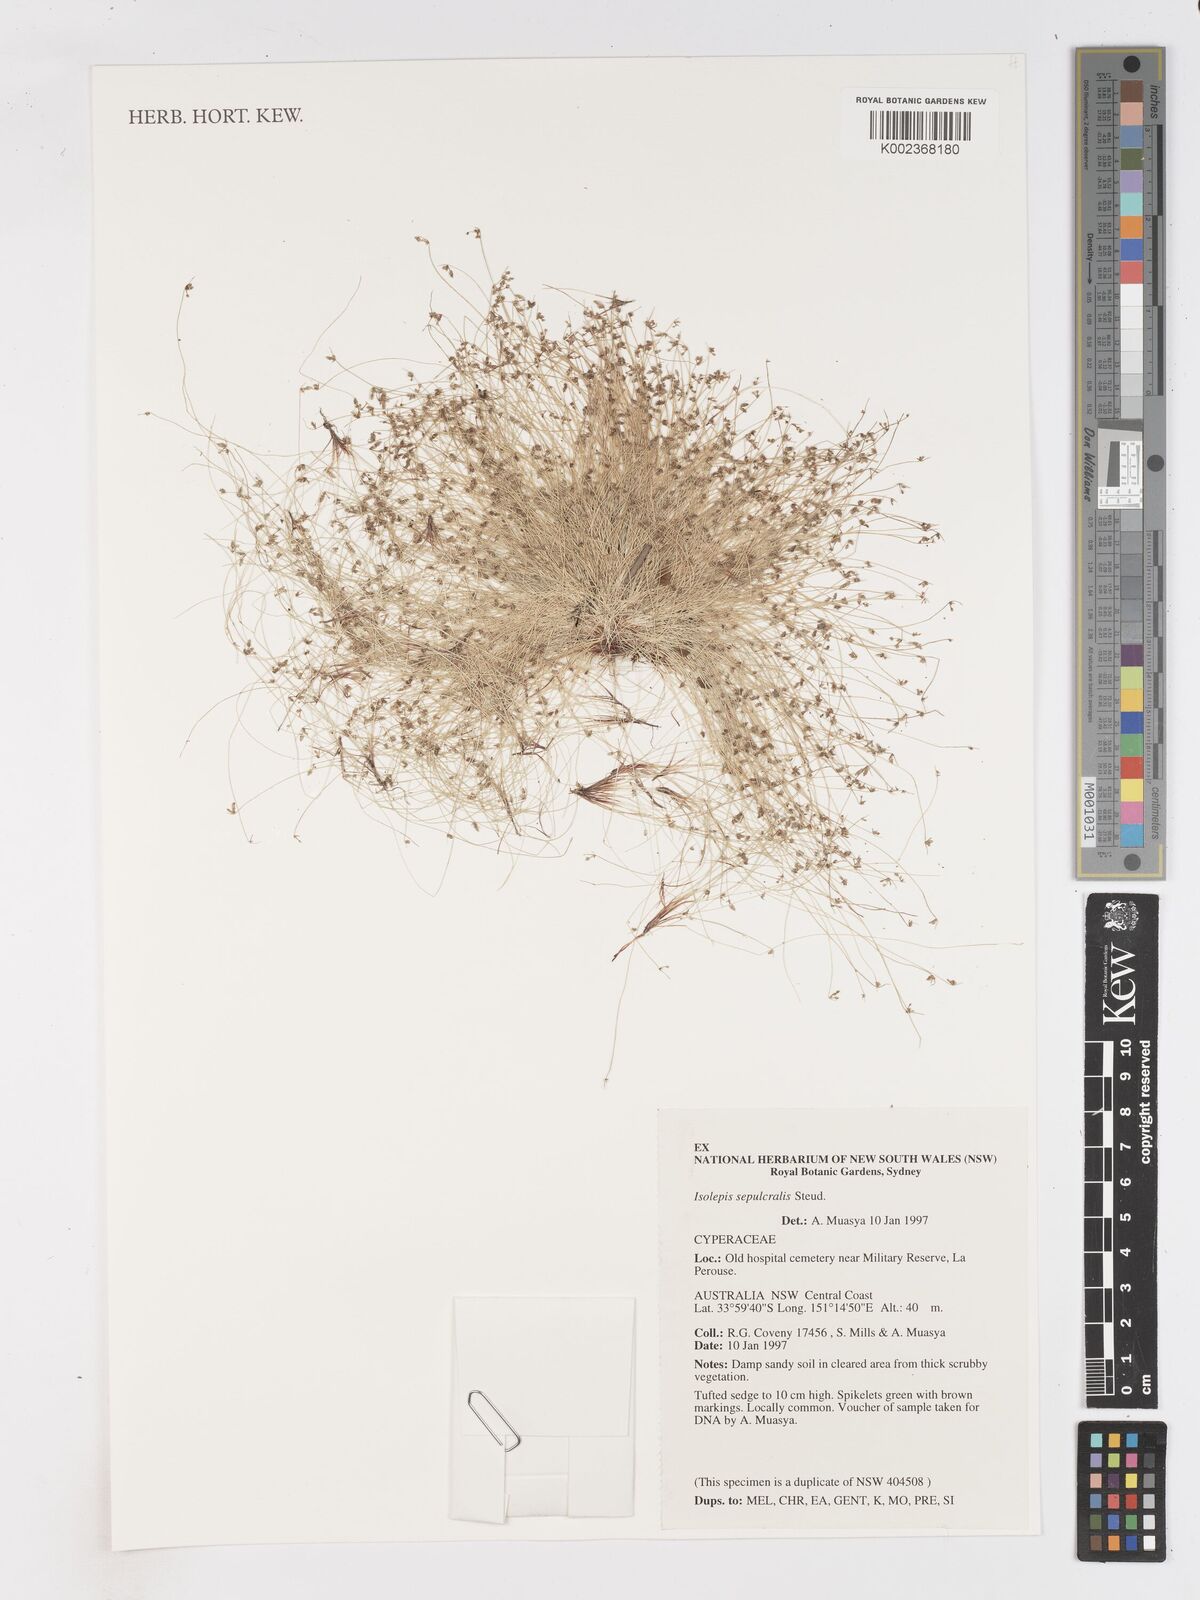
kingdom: Plantae
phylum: Tracheophyta
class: Liliopsida
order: Poales
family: Cyperaceae
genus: Isolepis
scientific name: Isolepis sepulcralis
